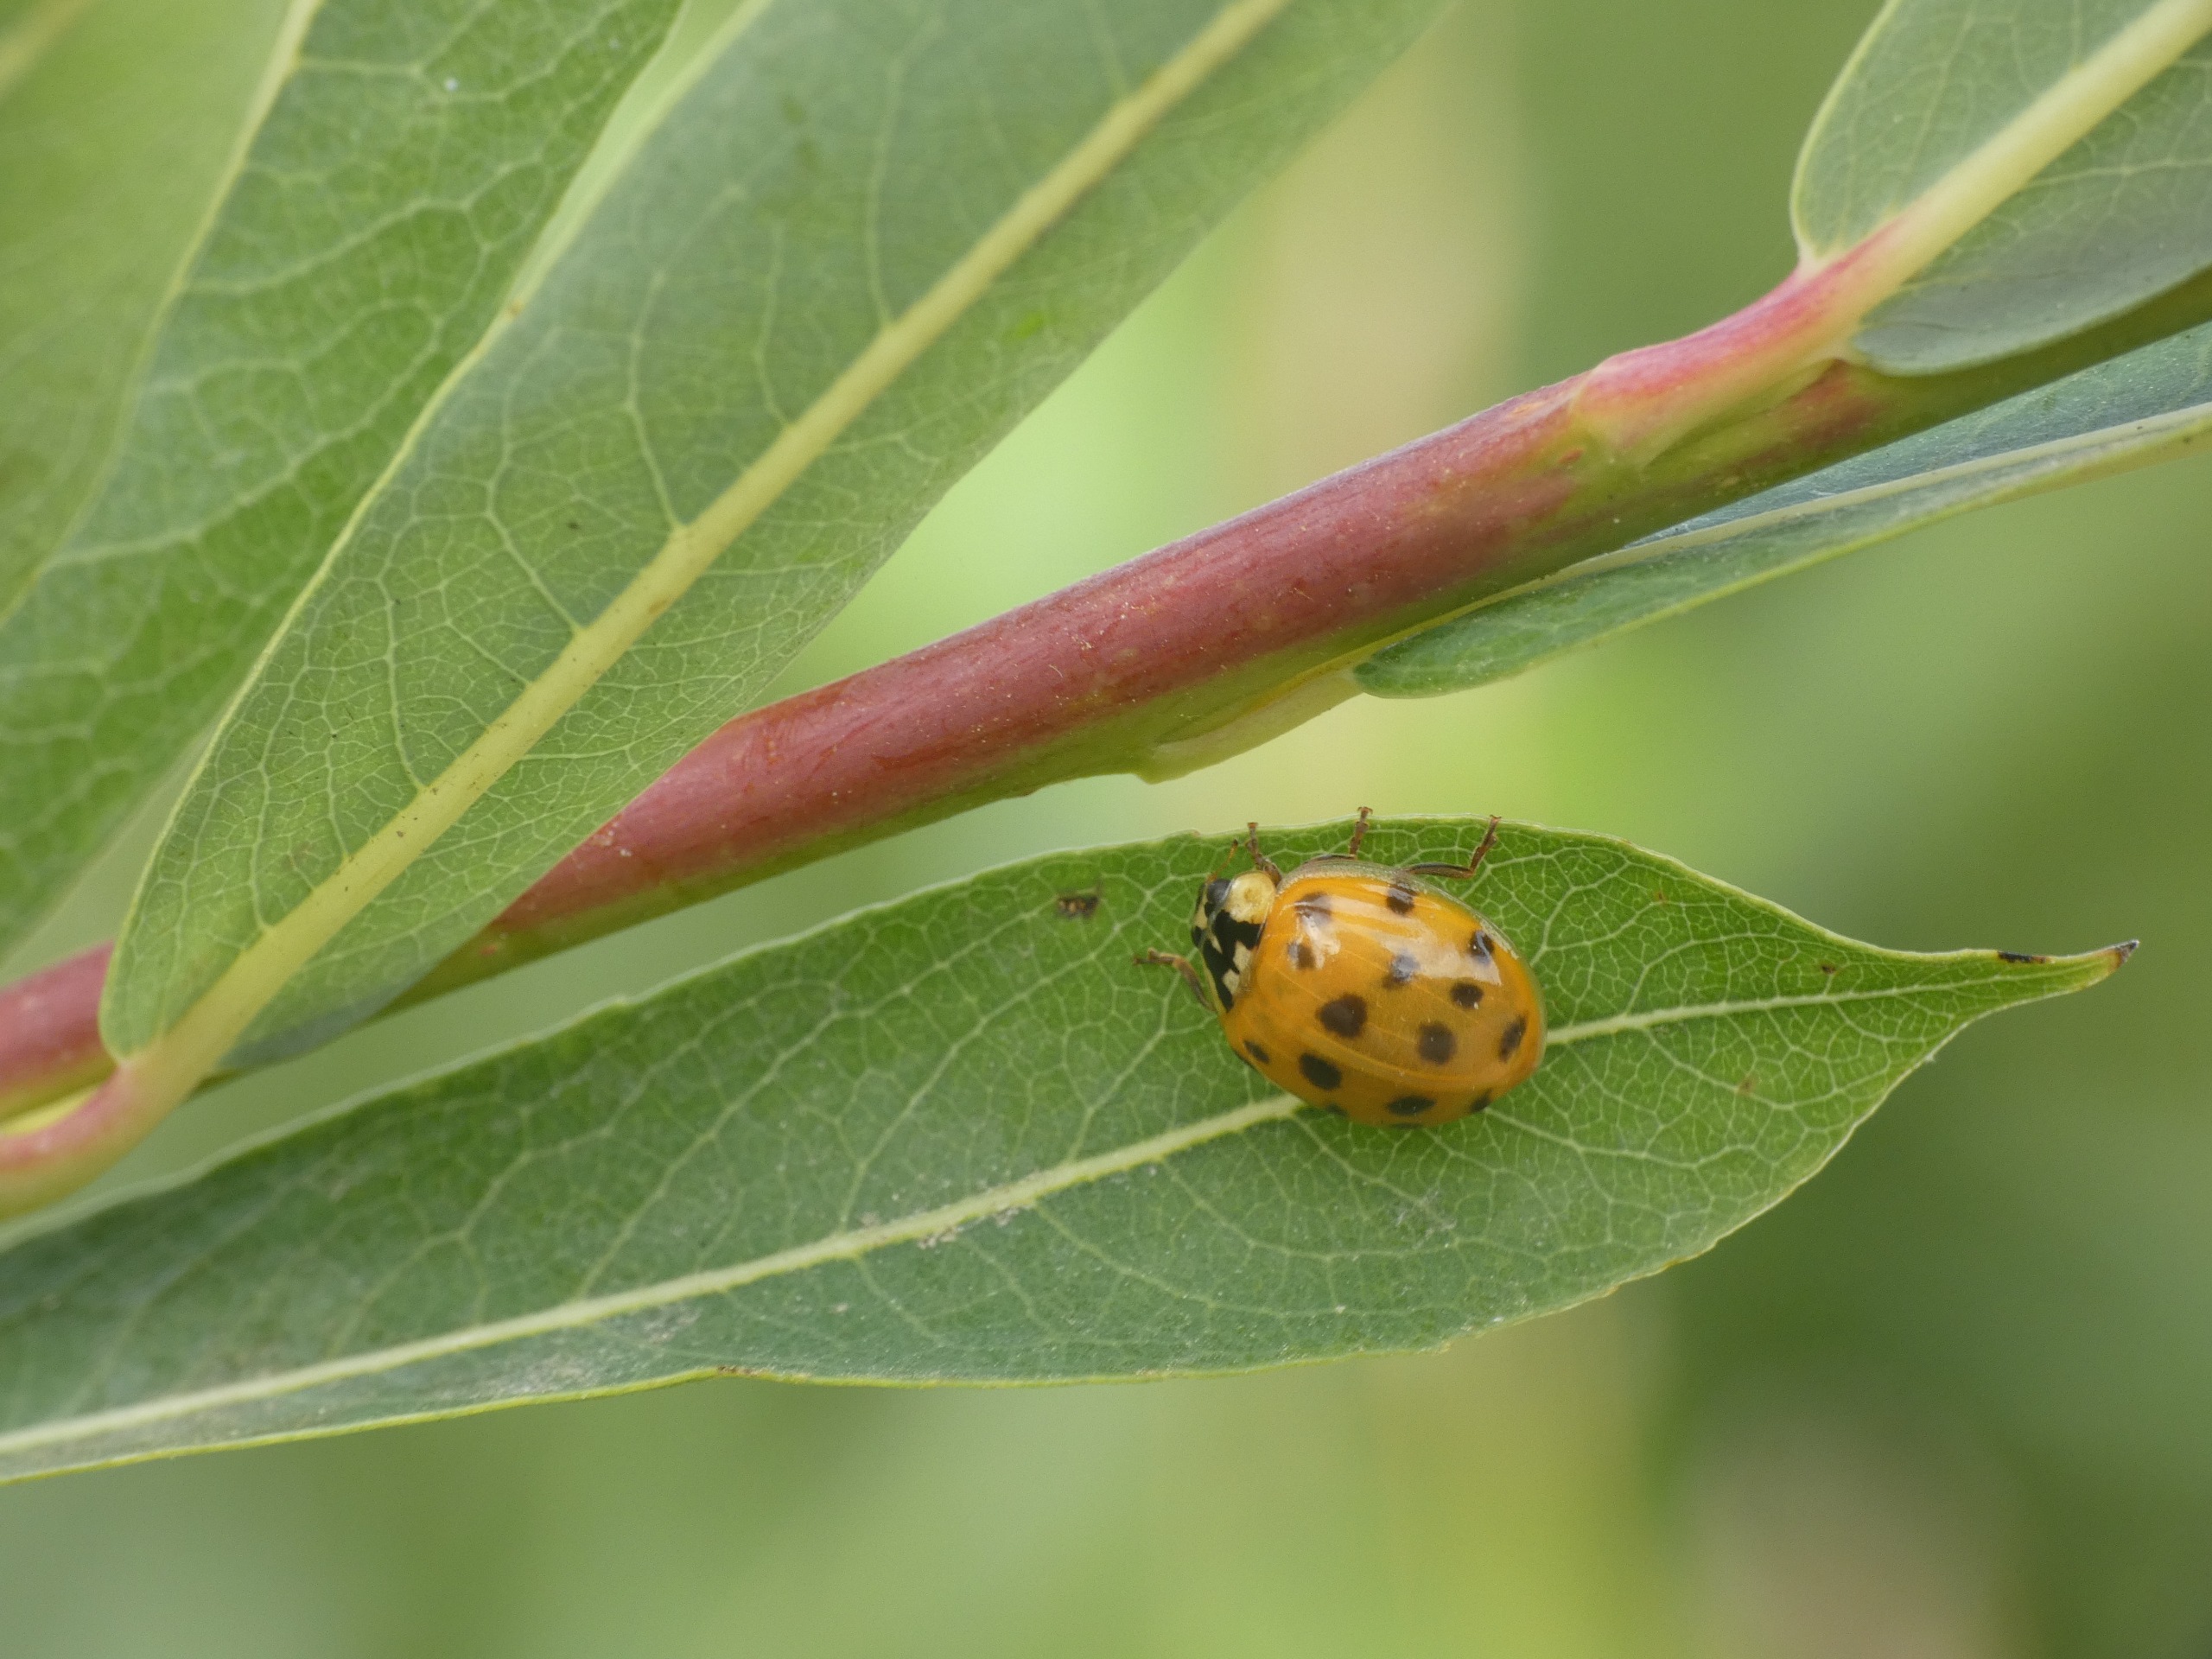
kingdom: Animalia
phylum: Arthropoda
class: Insecta
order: Coleoptera
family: Coccinellidae
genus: Harmonia
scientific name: Harmonia axyridis
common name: Harlekinmariehøne
